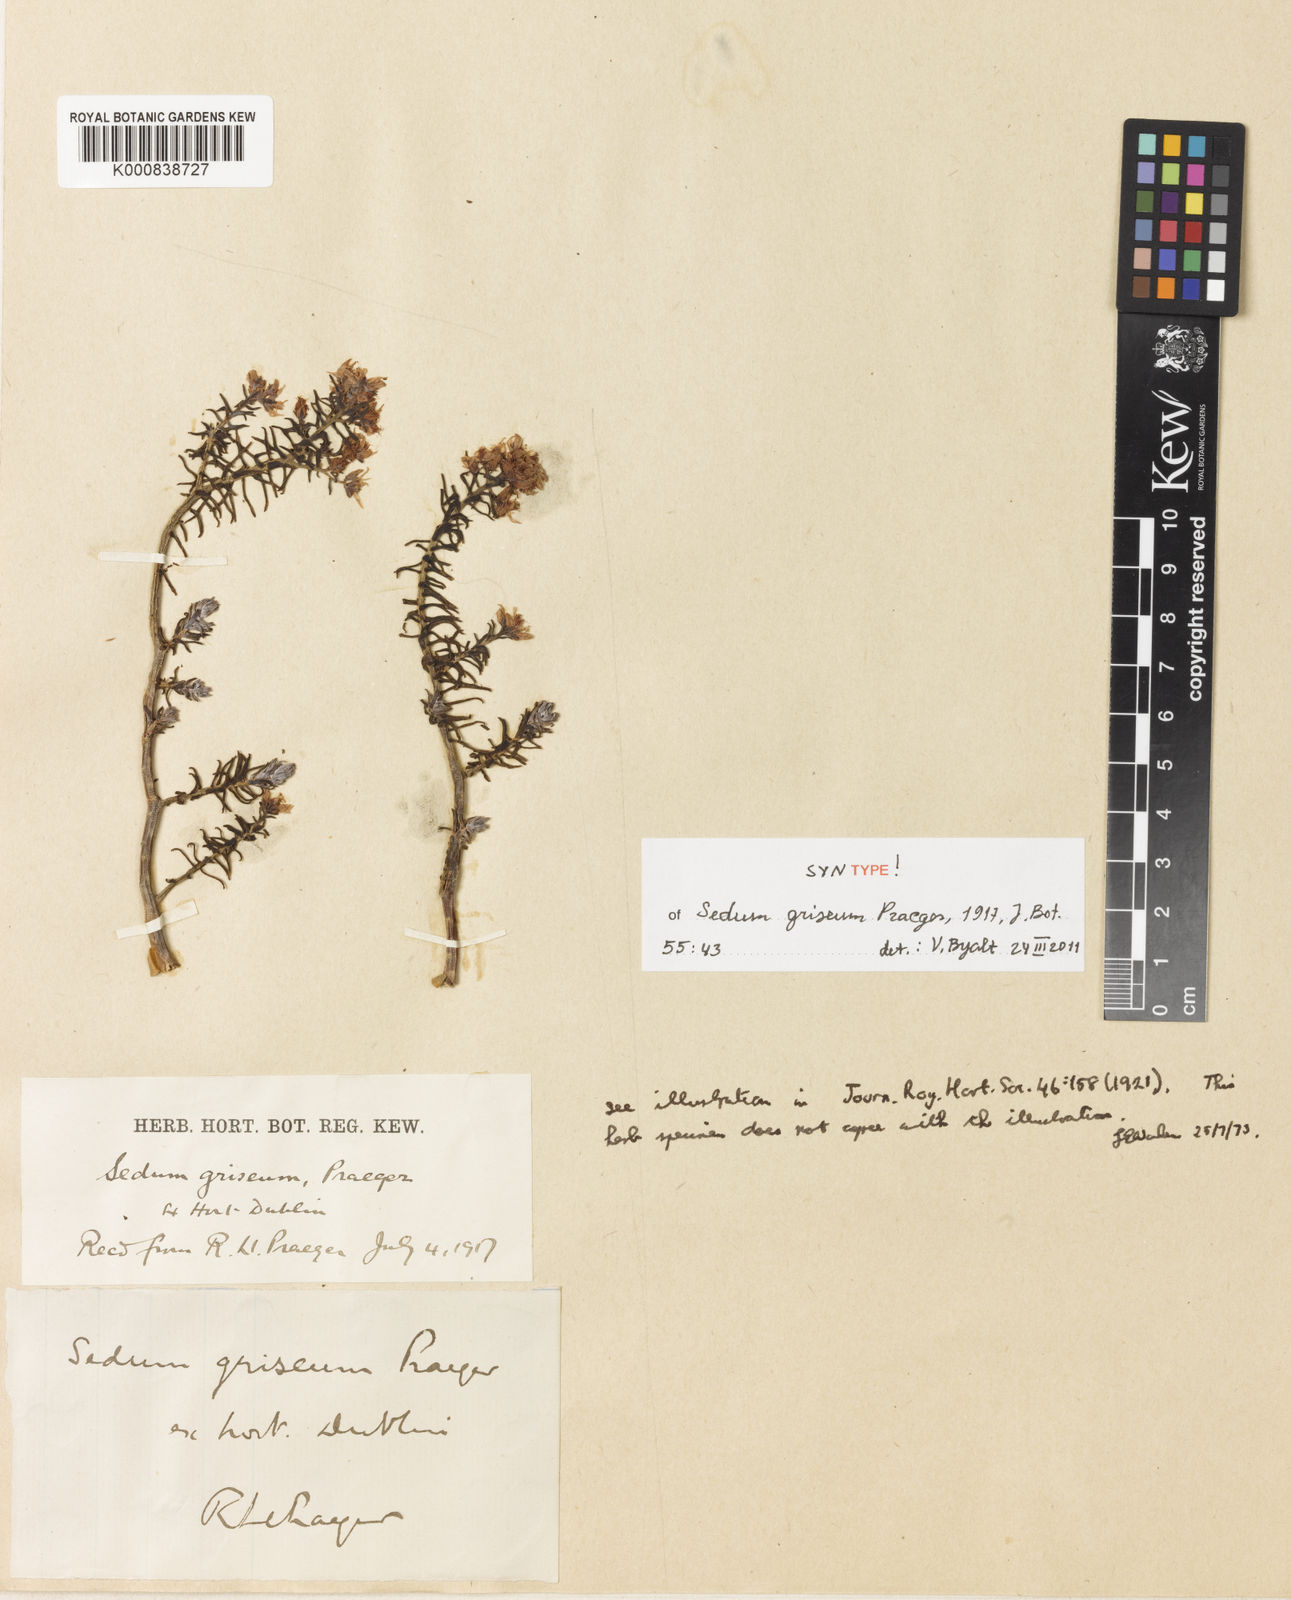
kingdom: Plantae
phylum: Tracheophyta
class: Magnoliopsida
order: Saxifragales
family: Crassulaceae
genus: Sedum
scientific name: Sedum griseum
